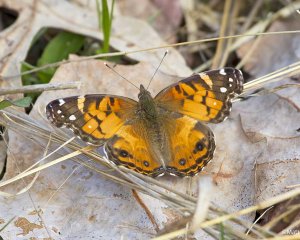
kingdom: Animalia
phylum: Arthropoda
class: Insecta
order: Lepidoptera
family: Nymphalidae
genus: Vanessa
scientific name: Vanessa virginiensis
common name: American Lady
